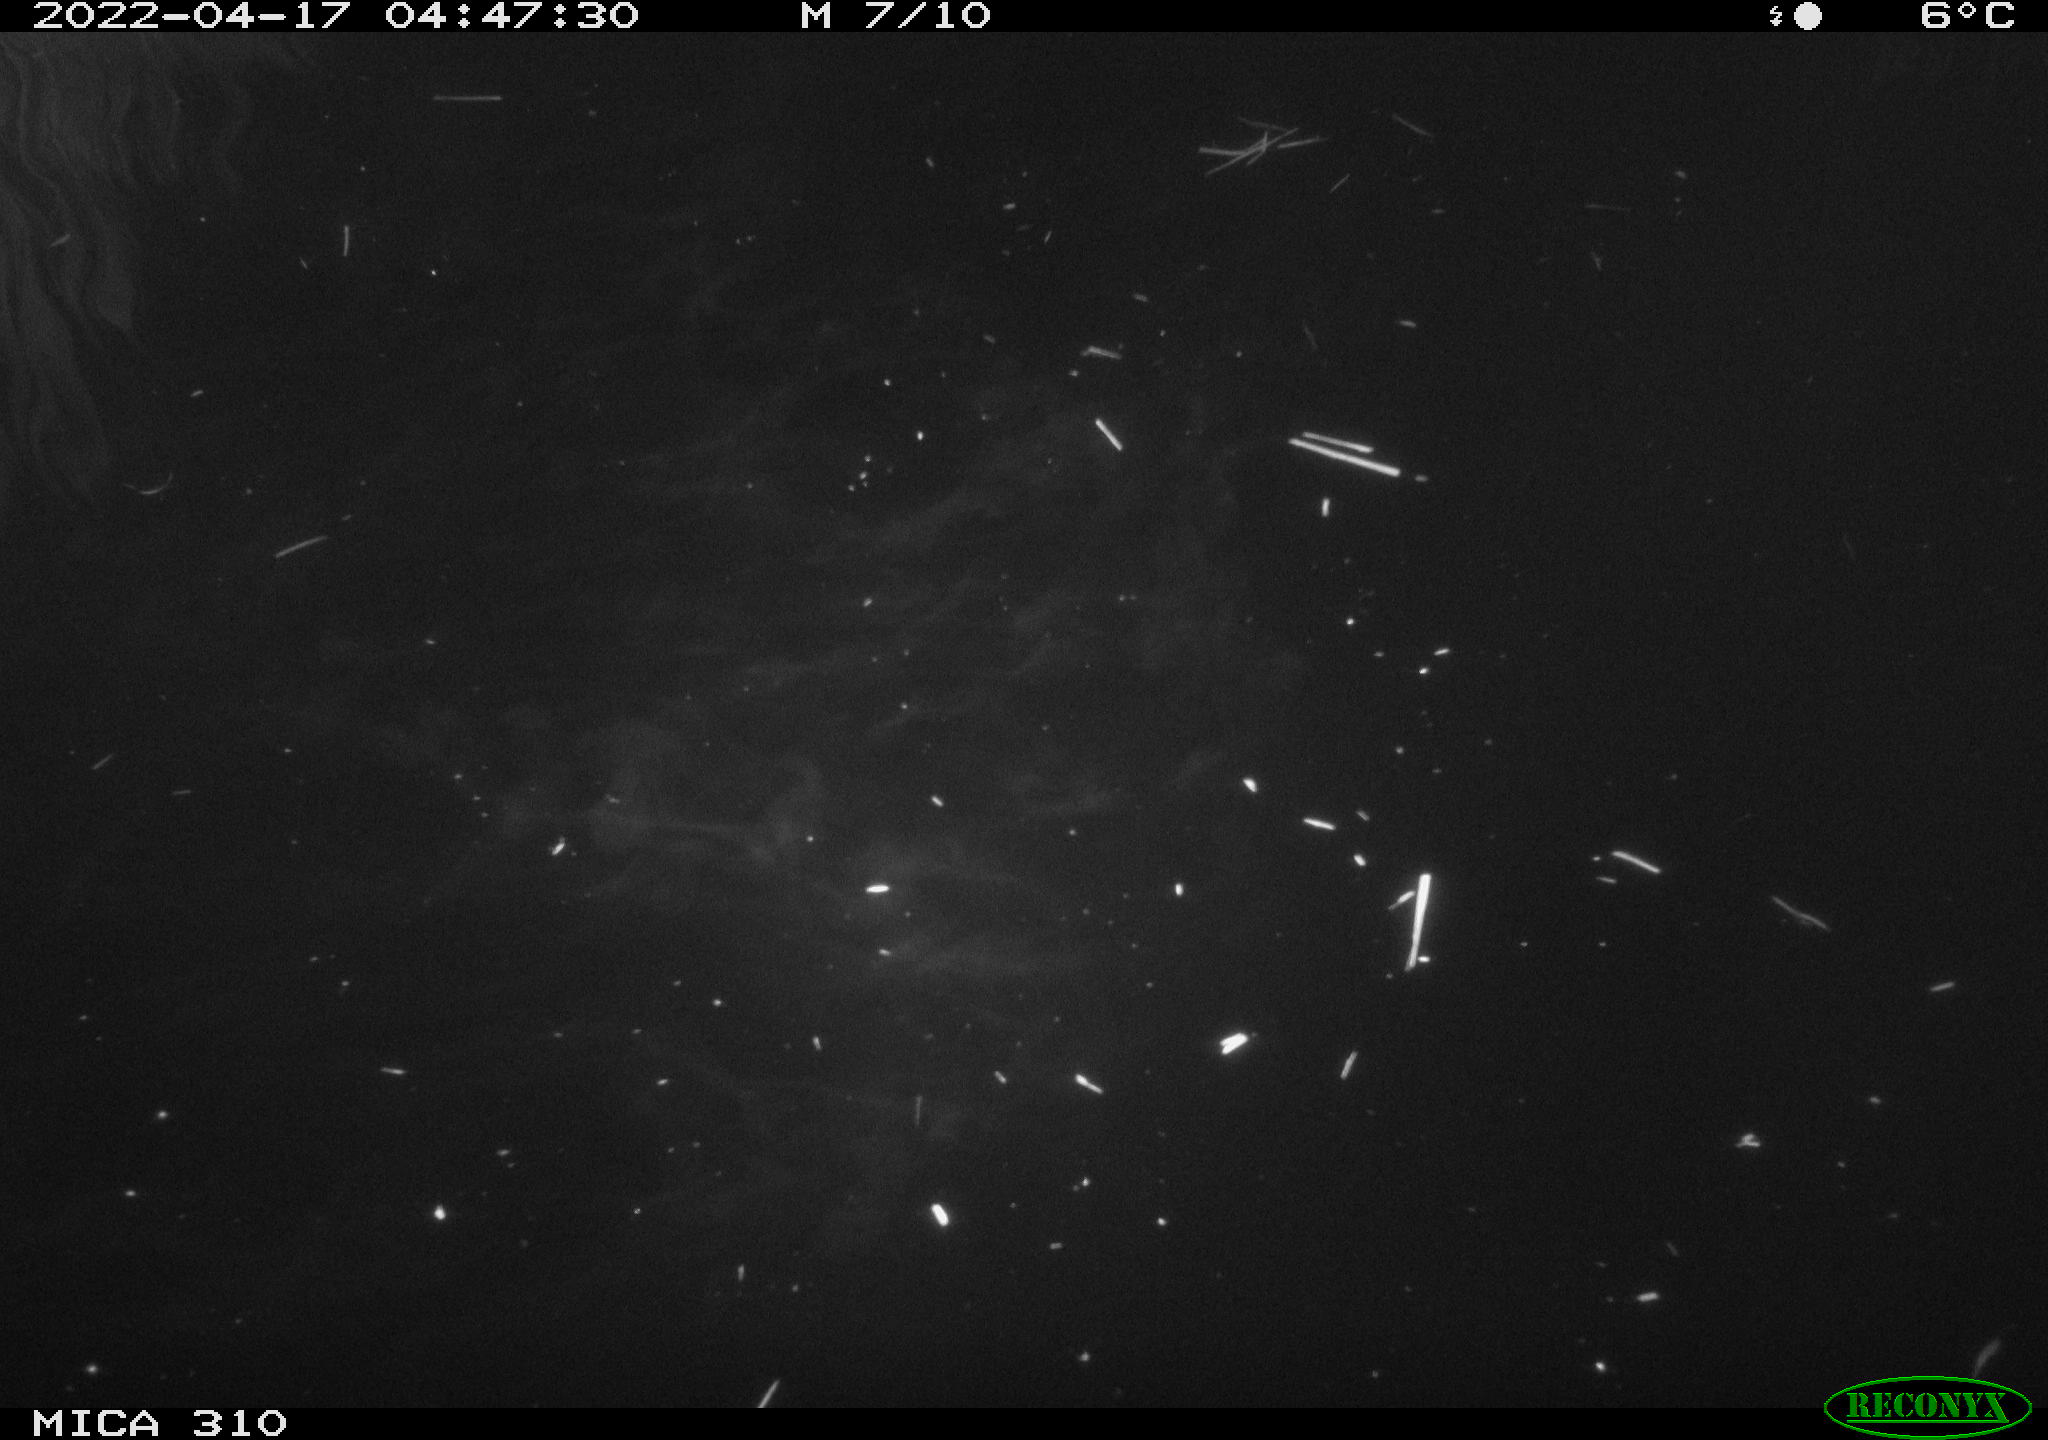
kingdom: Animalia
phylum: Chordata
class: Aves
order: Anseriformes
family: Anatidae
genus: Anas
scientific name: Anas platyrhynchos
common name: Mallard
